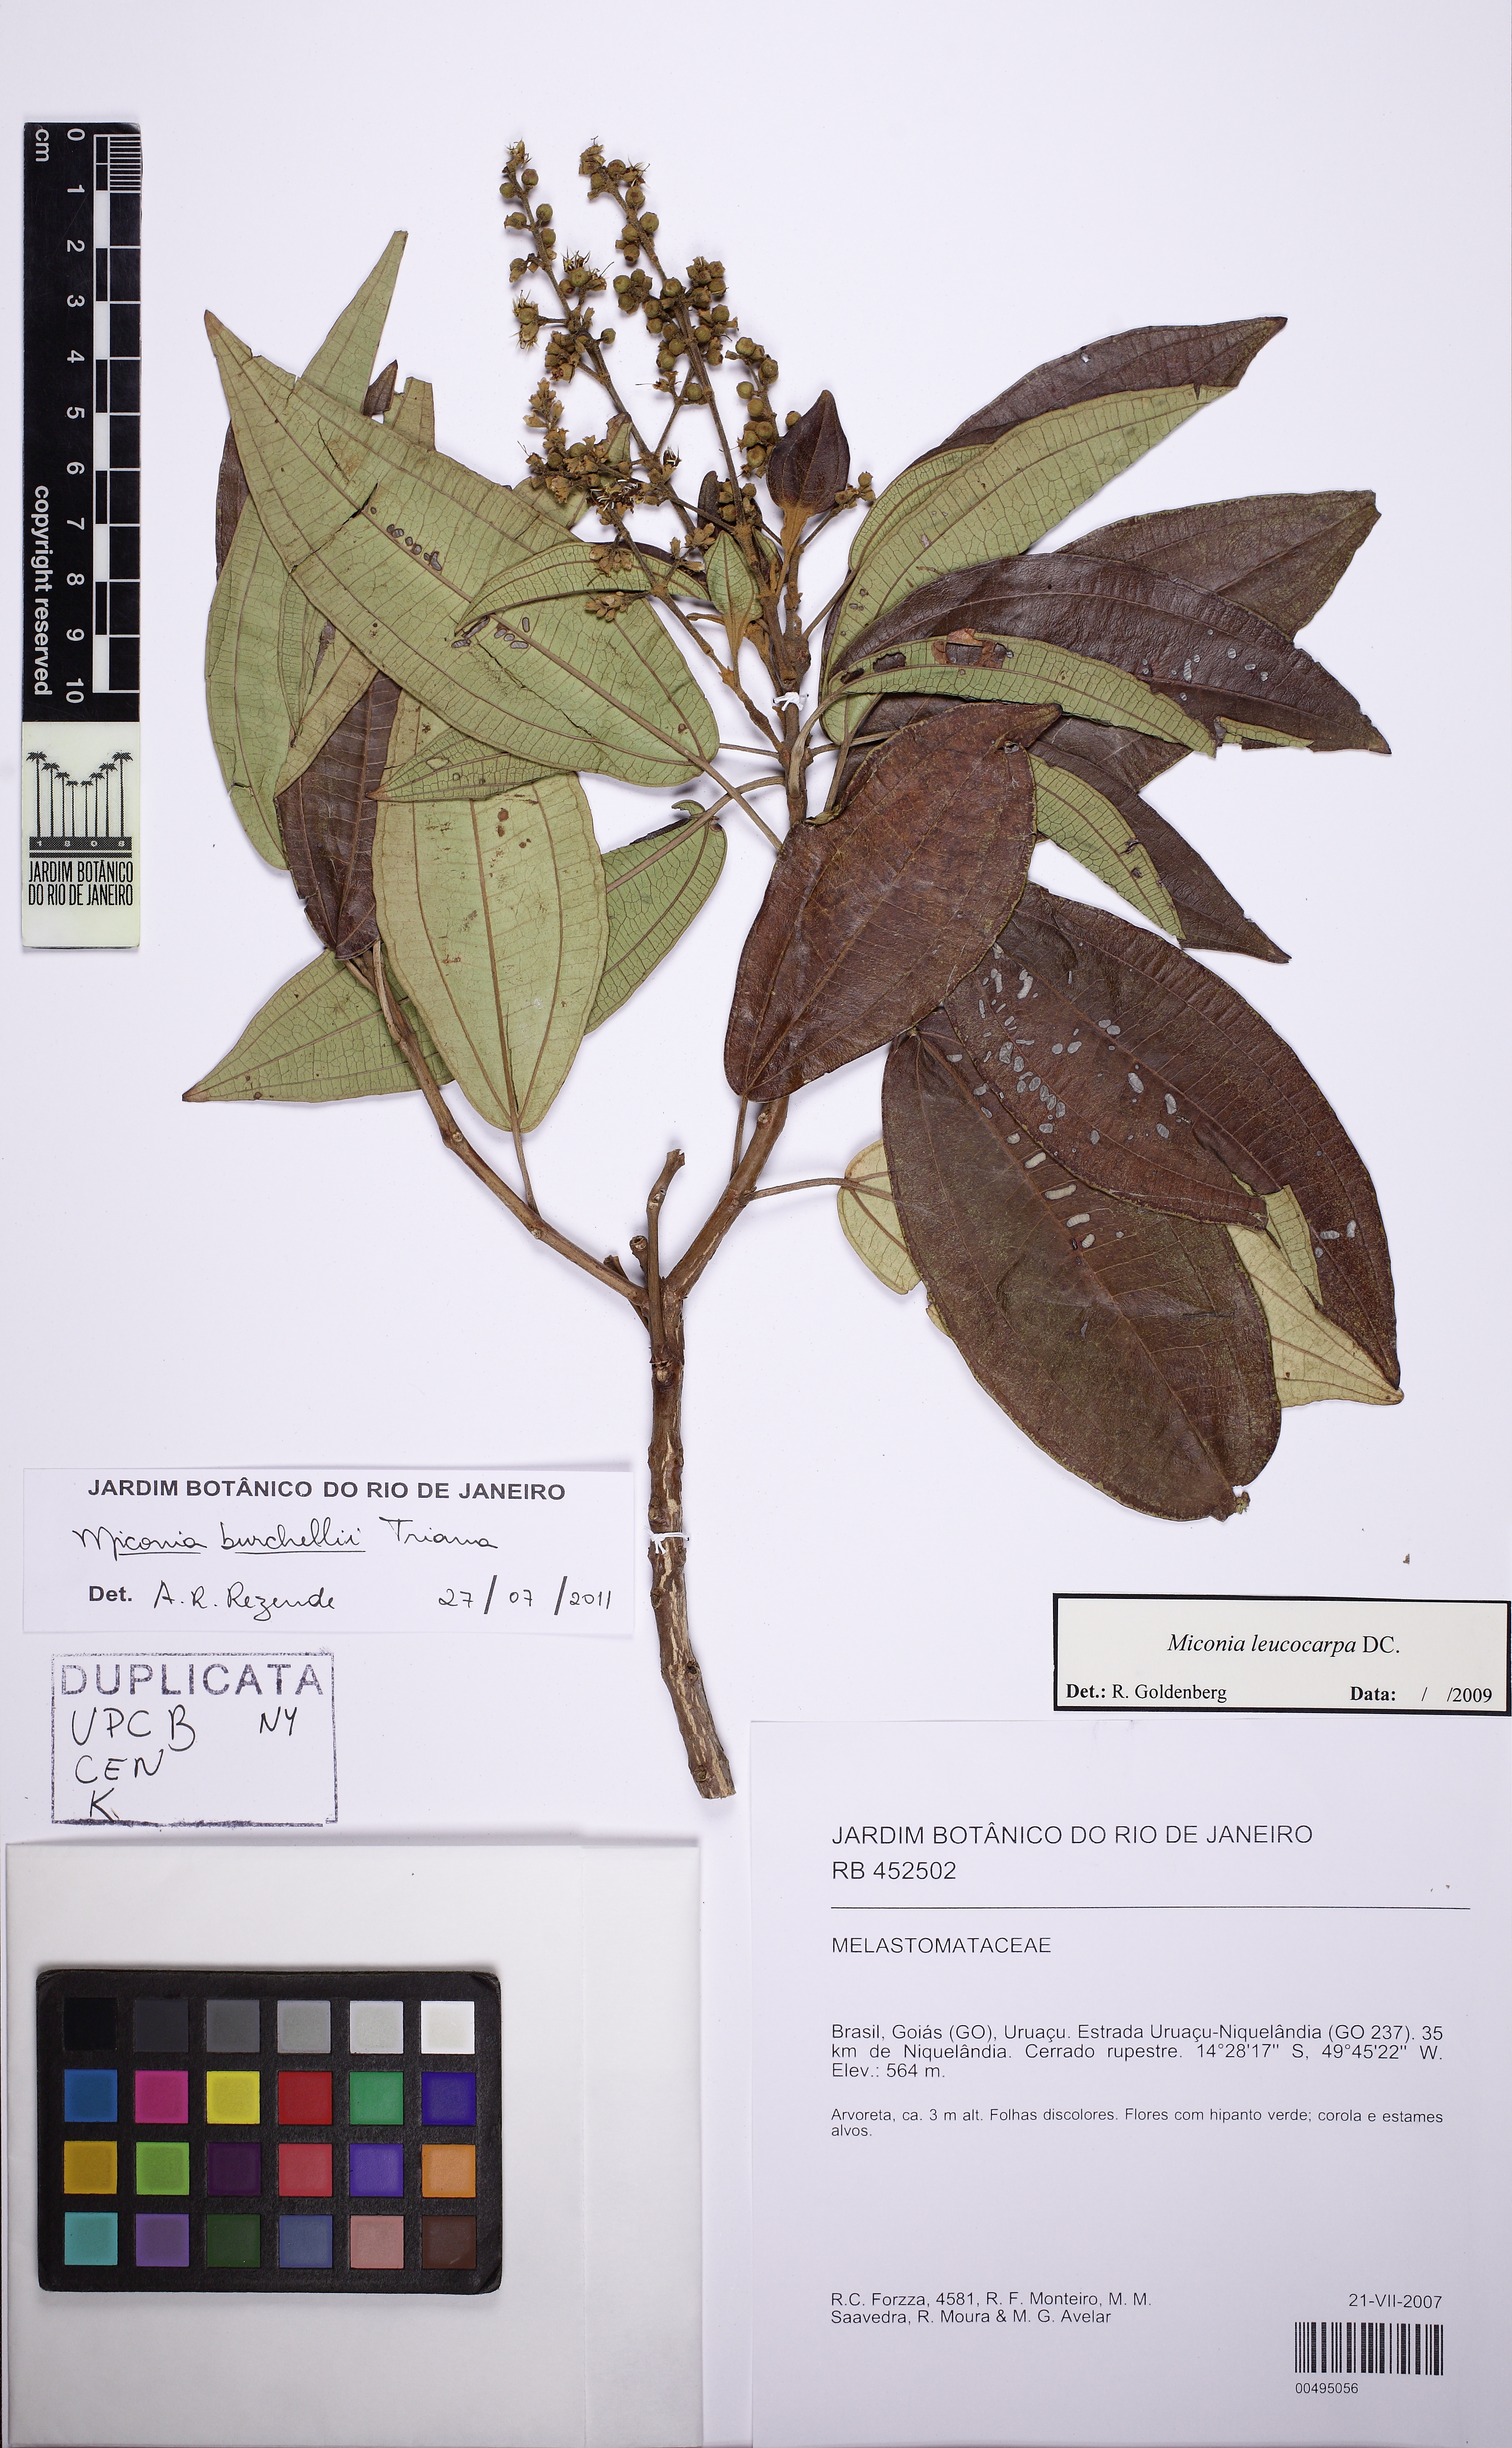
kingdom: Plantae
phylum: Tracheophyta
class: Magnoliopsida
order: Myrtales
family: Melastomataceae
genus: Miconia
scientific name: Miconia burchellii
